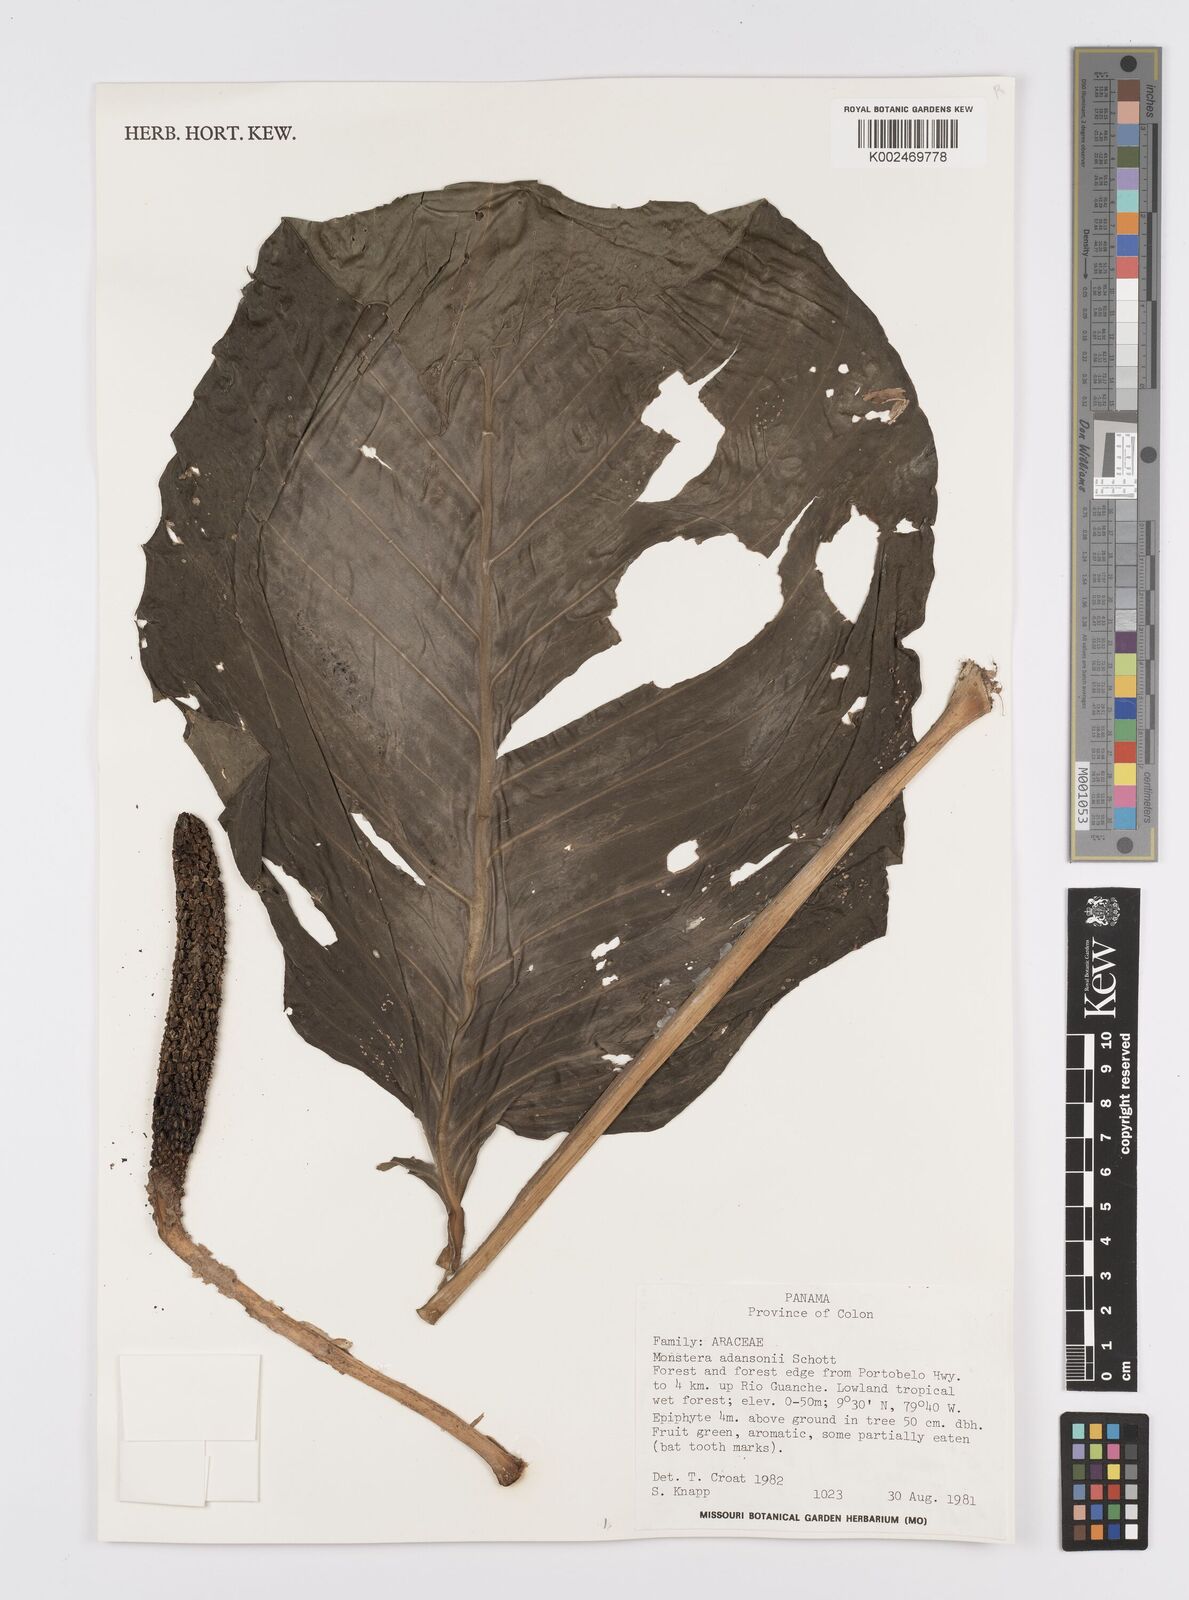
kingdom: Plantae
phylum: Tracheophyta
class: Liliopsida
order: Alismatales
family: Araceae
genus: Monstera
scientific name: Monstera adansonii
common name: Tarovine
